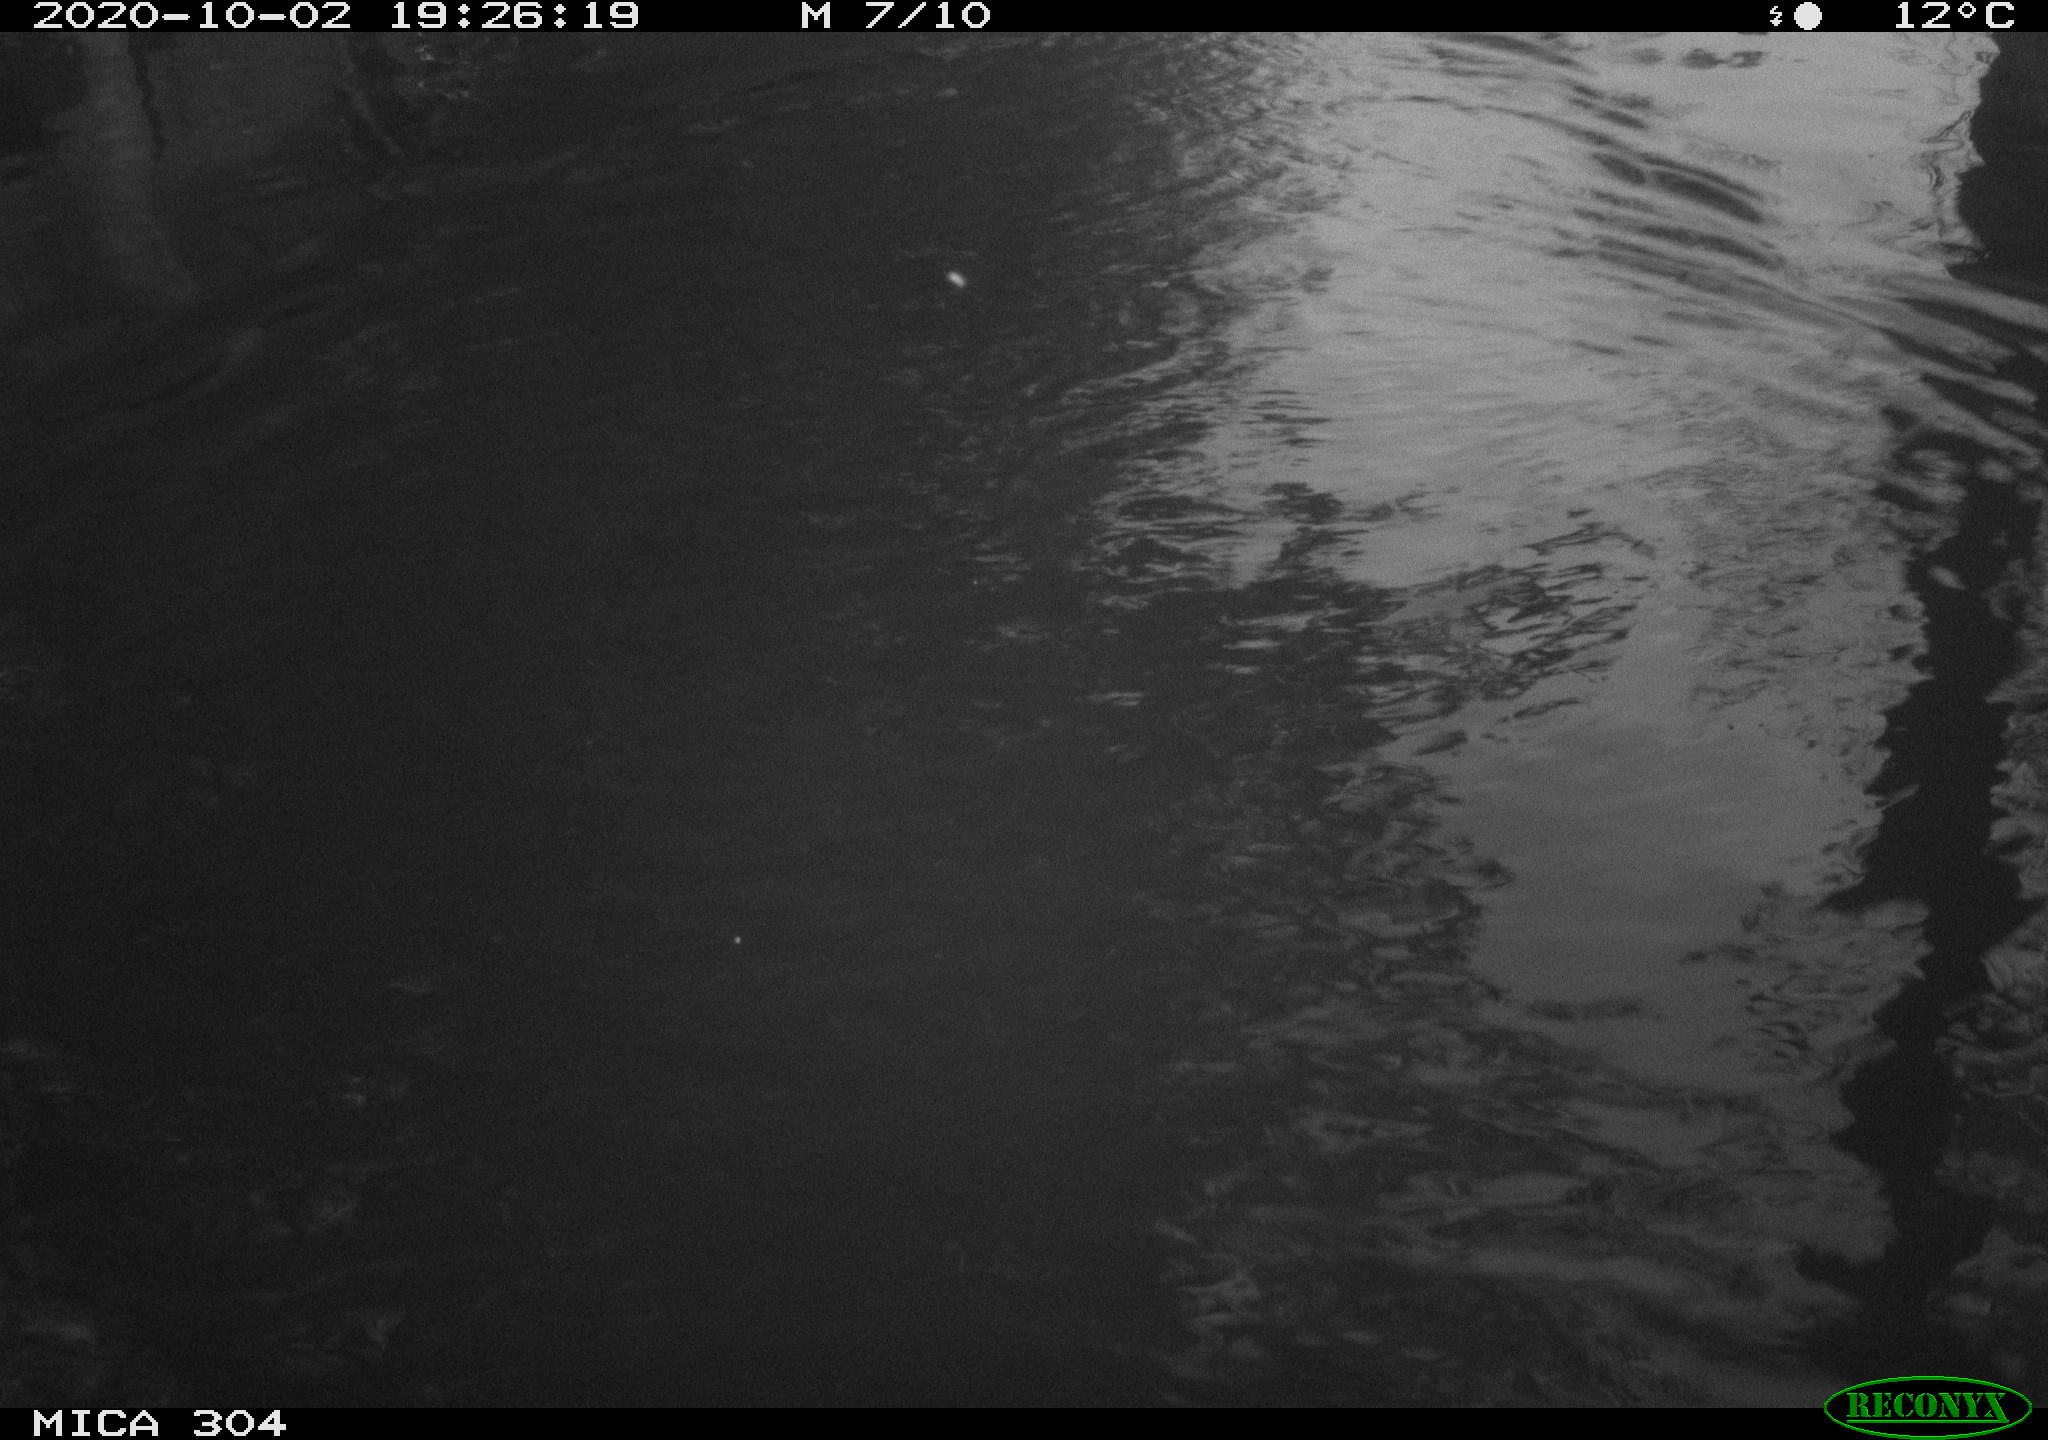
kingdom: Animalia
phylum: Chordata
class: Aves
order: Gruiformes
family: Rallidae
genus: Gallinula
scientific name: Gallinula chloropus
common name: Common moorhen
